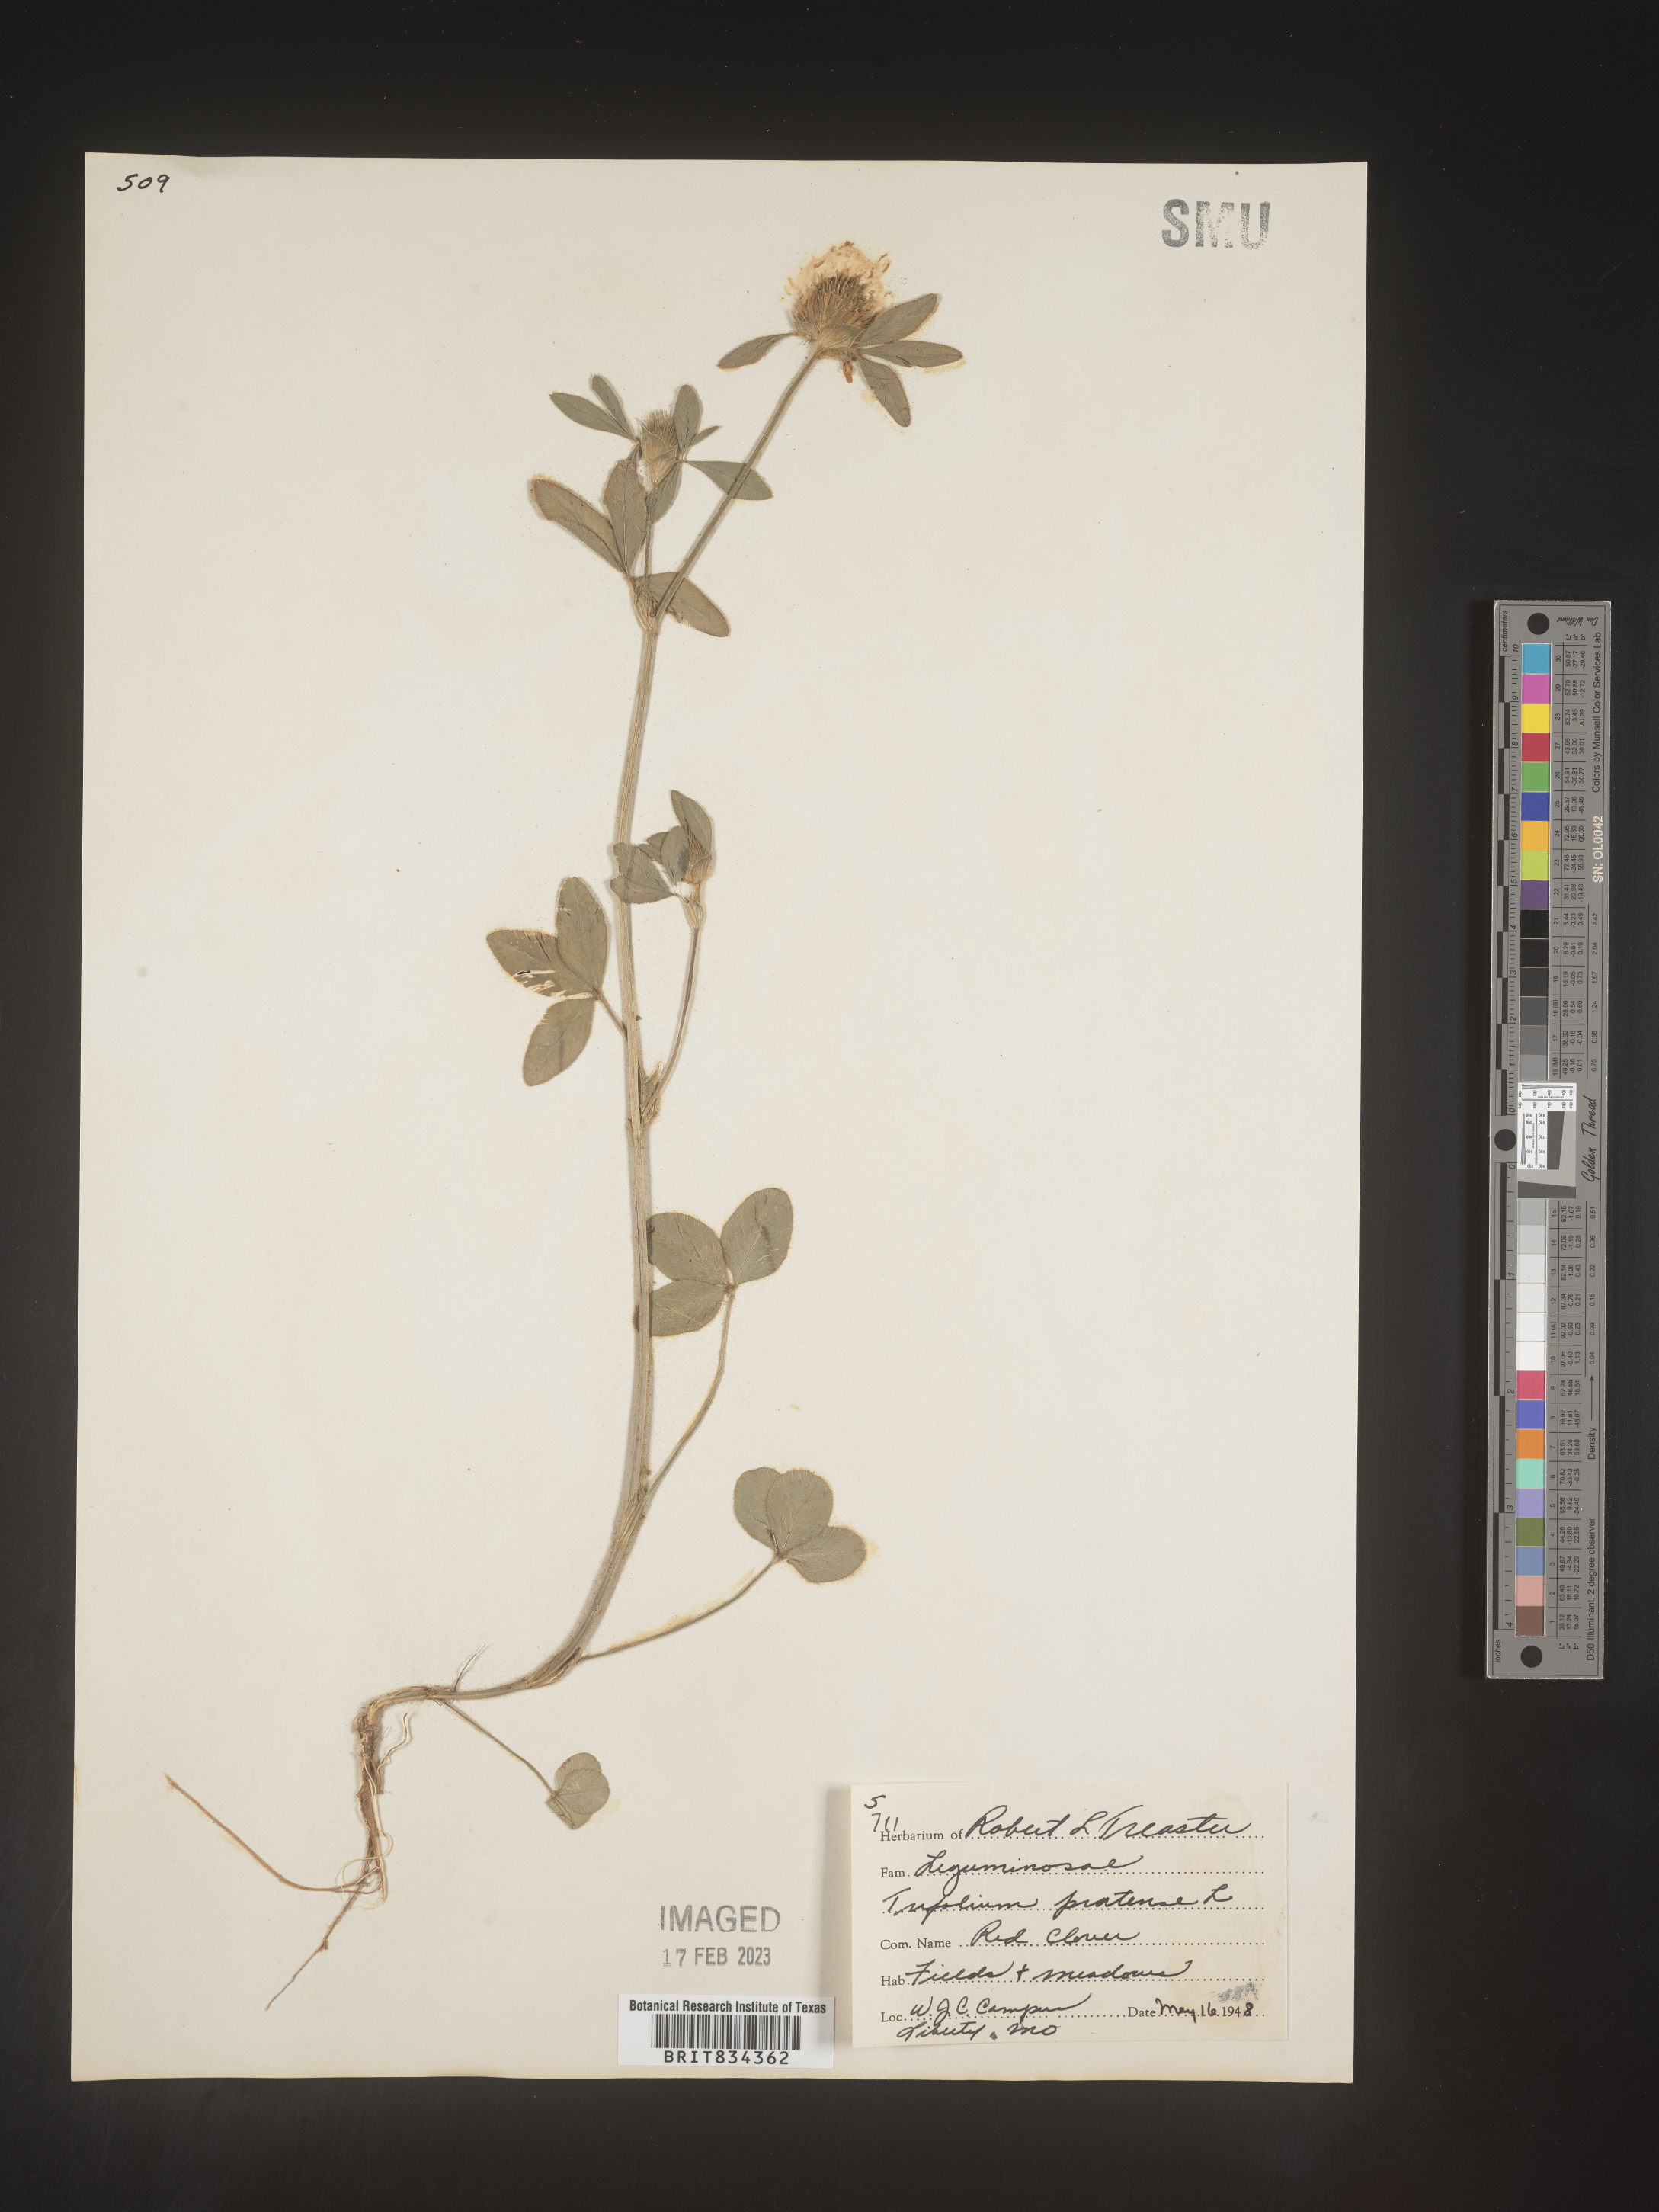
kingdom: Plantae
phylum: Tracheophyta
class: Magnoliopsida
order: Fabales
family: Fabaceae
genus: Trifolium
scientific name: Trifolium pratense
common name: Red clover
